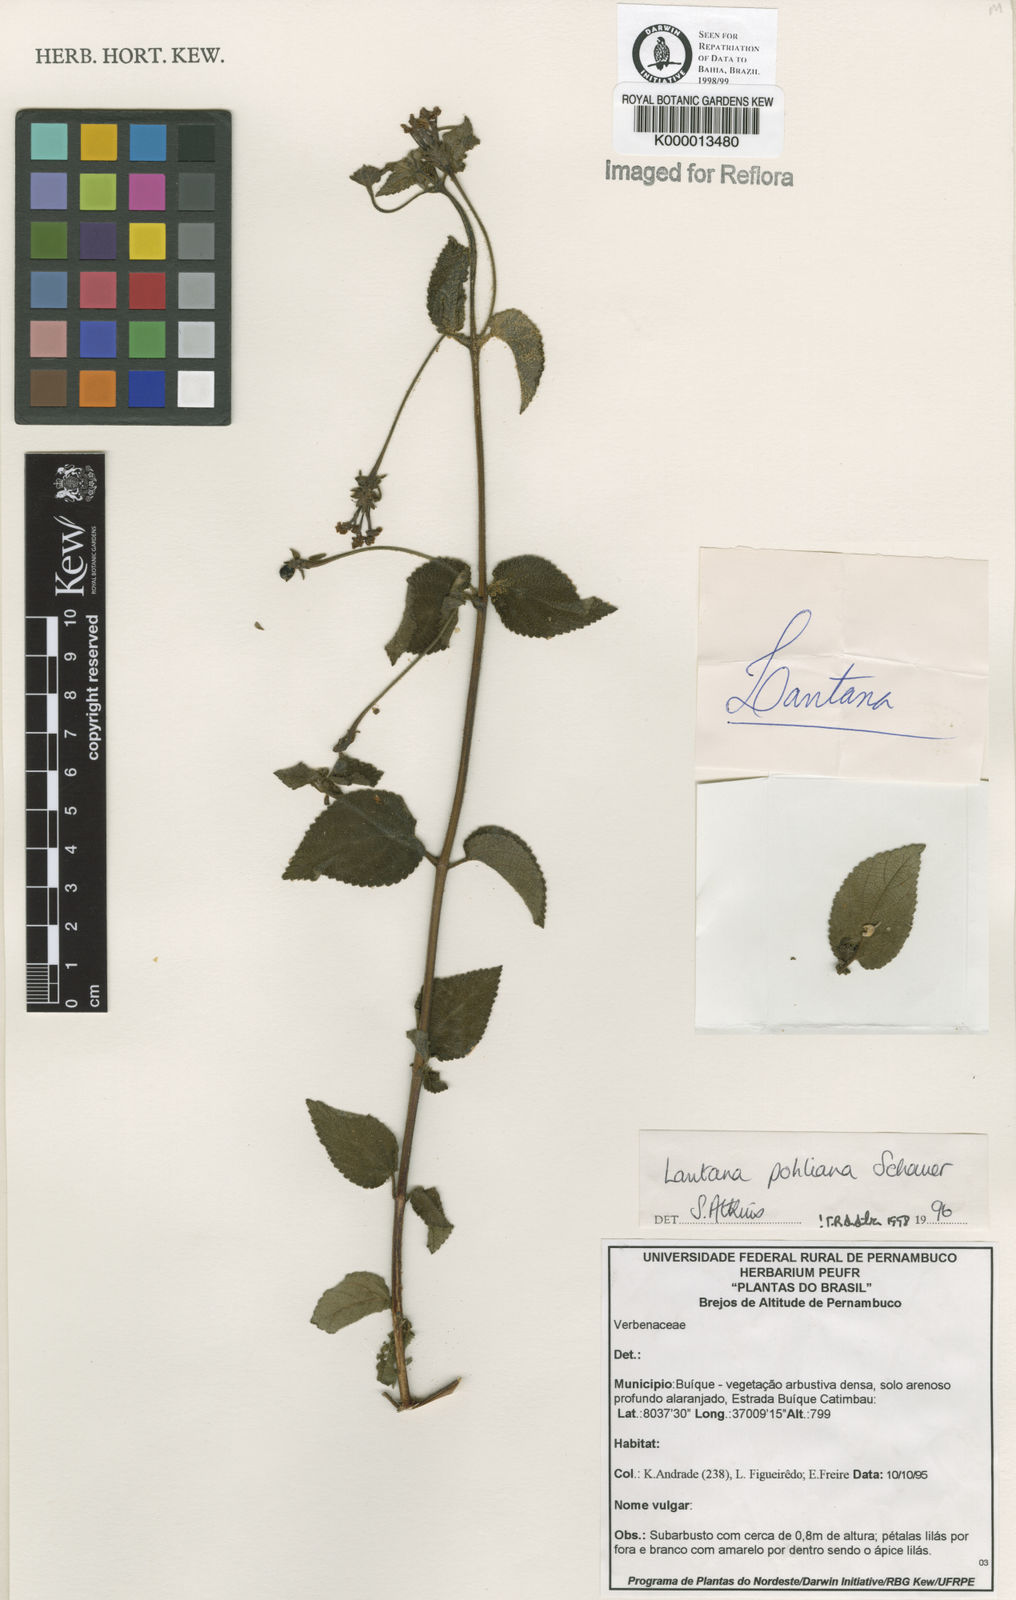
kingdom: Plantae
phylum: Tracheophyta
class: Magnoliopsida
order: Lamiales
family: Verbenaceae
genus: Lantana
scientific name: Lantana pohliana
